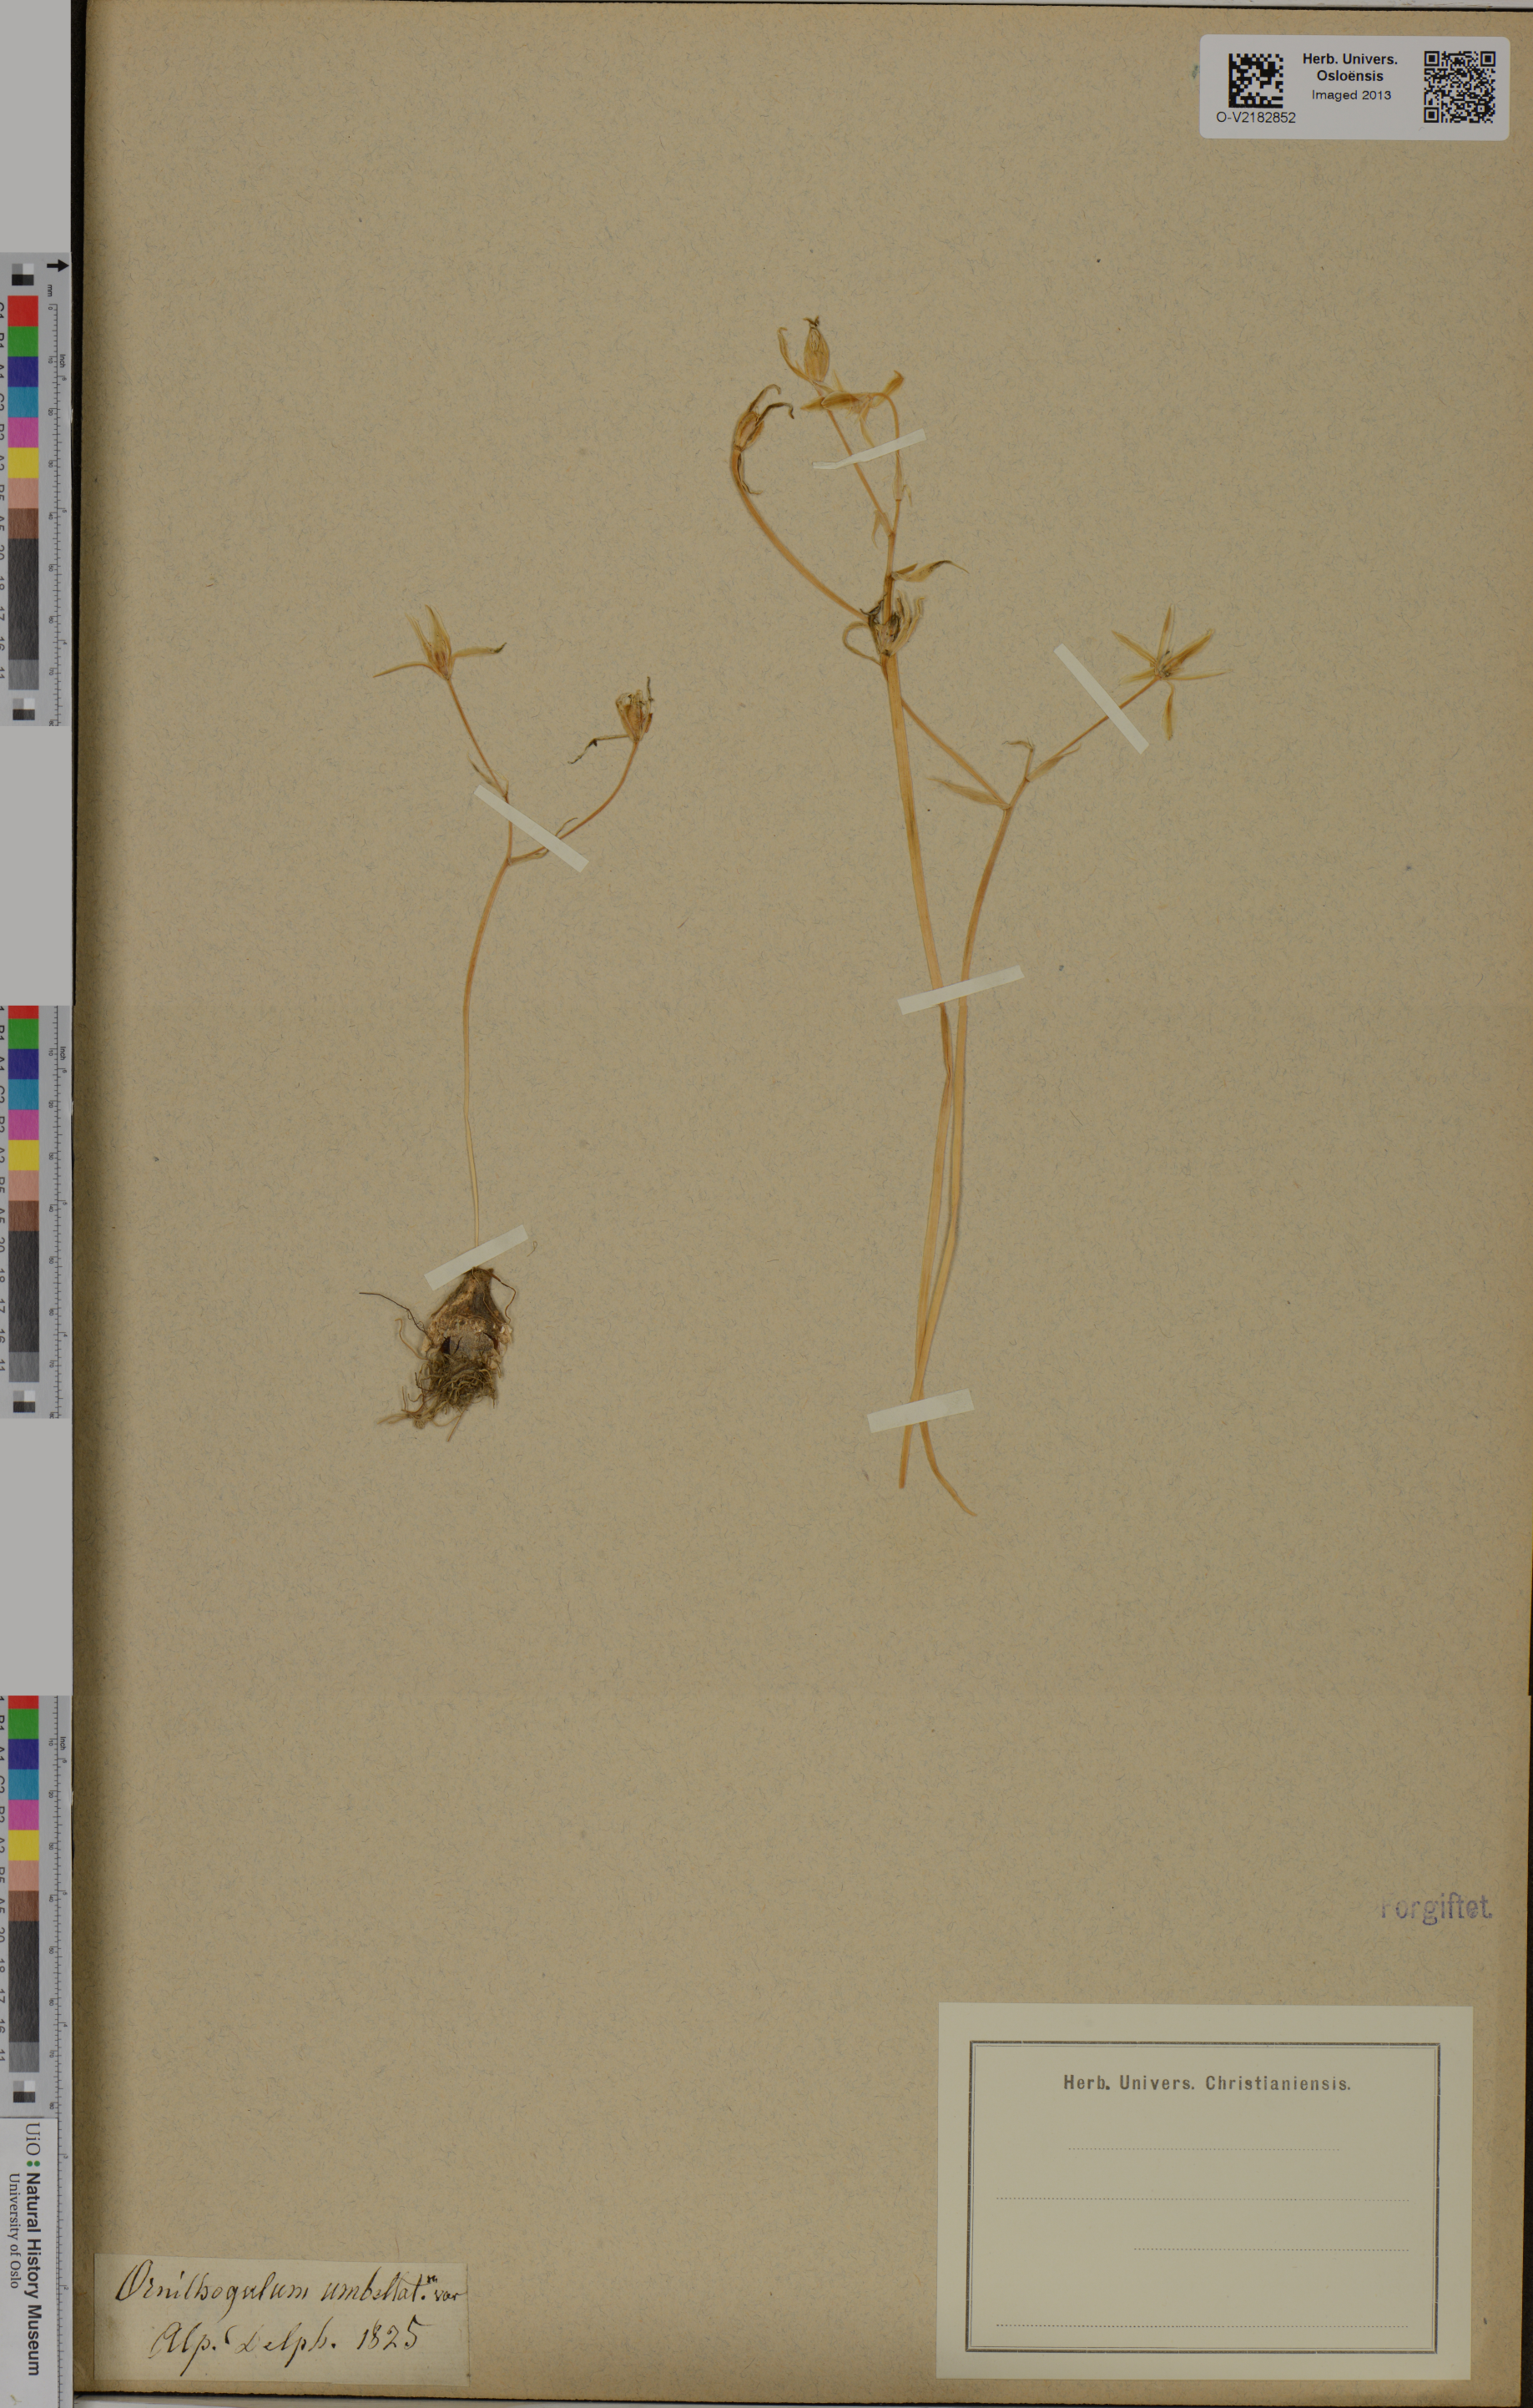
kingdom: Plantae
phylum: Tracheophyta
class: Liliopsida
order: Asparagales
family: Asparagaceae
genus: Ornithogalum
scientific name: Ornithogalum umbellatum
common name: Garden star-of-bethlehem
